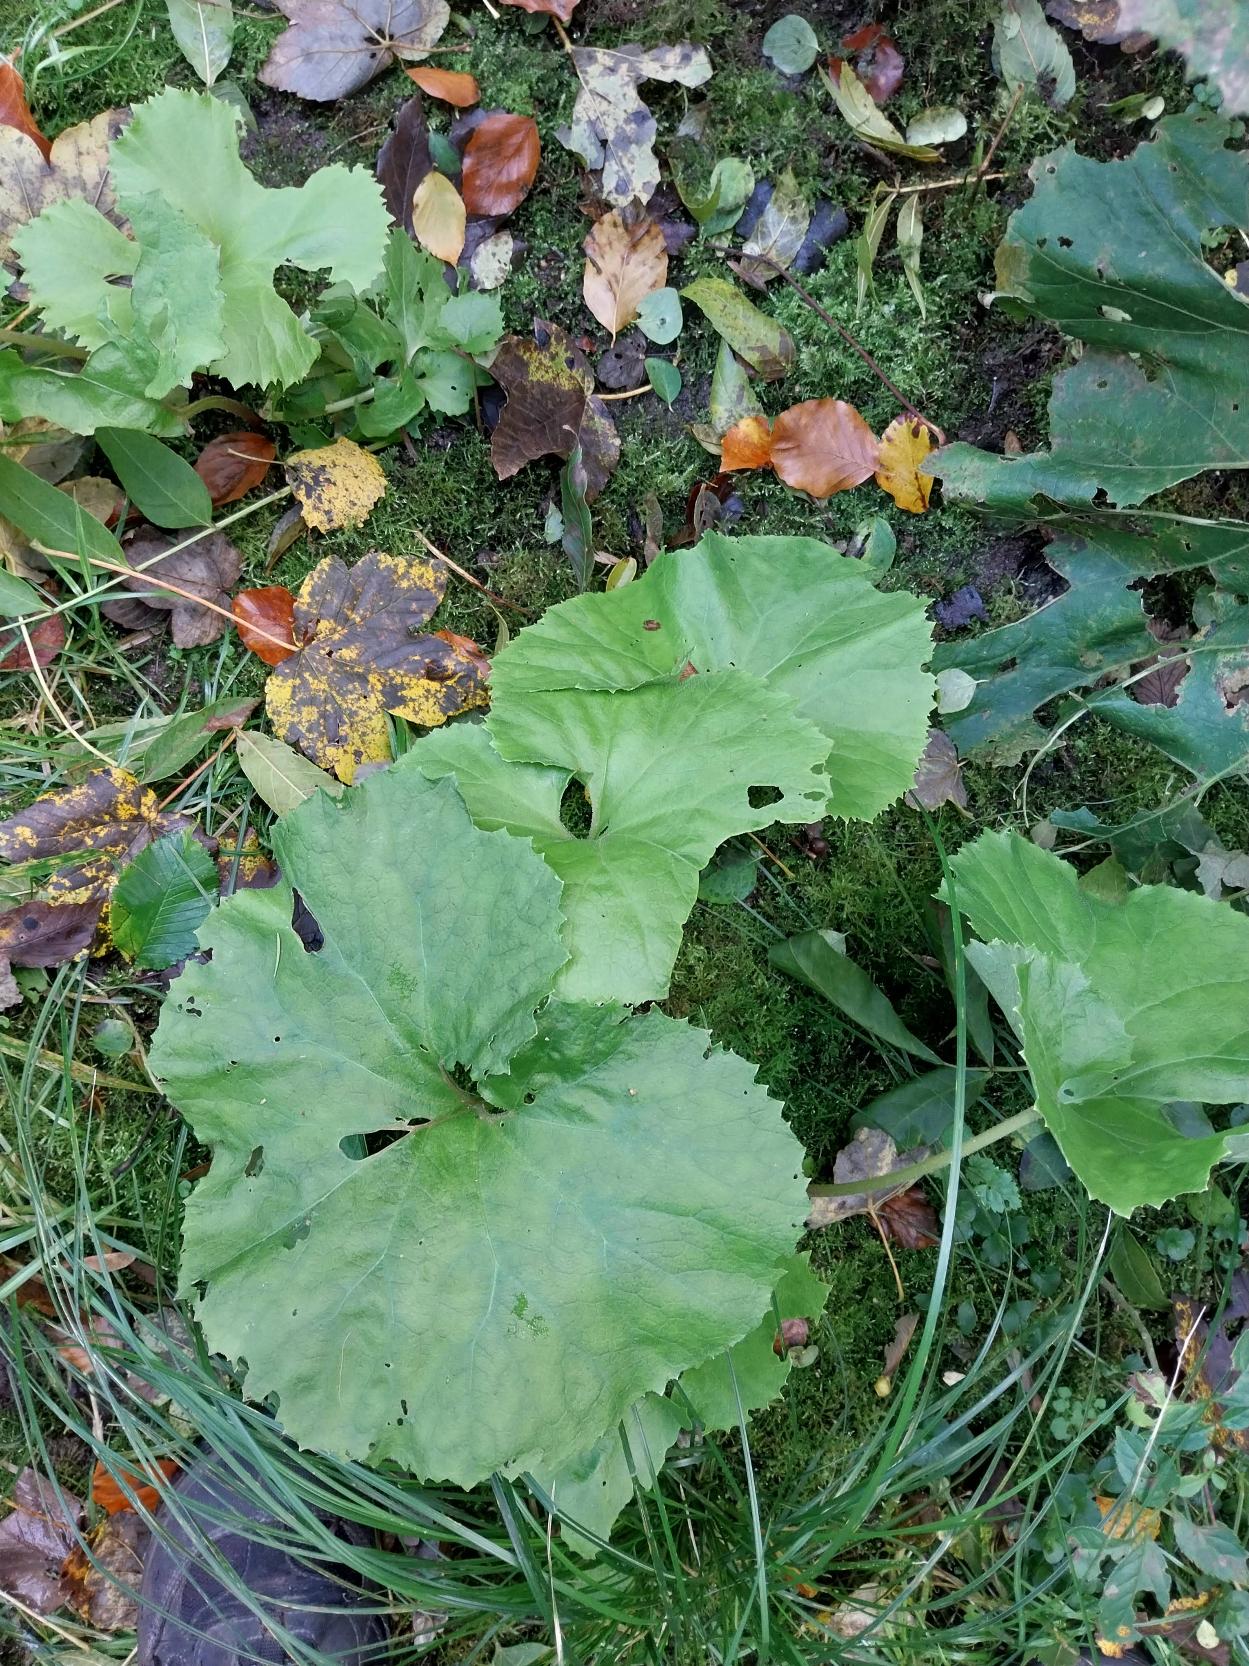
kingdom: Plantae
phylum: Tracheophyta
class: Magnoliopsida
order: Asterales
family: Asteraceae
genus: Petasites
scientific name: Petasites japonicus
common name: Japansk hestehov
